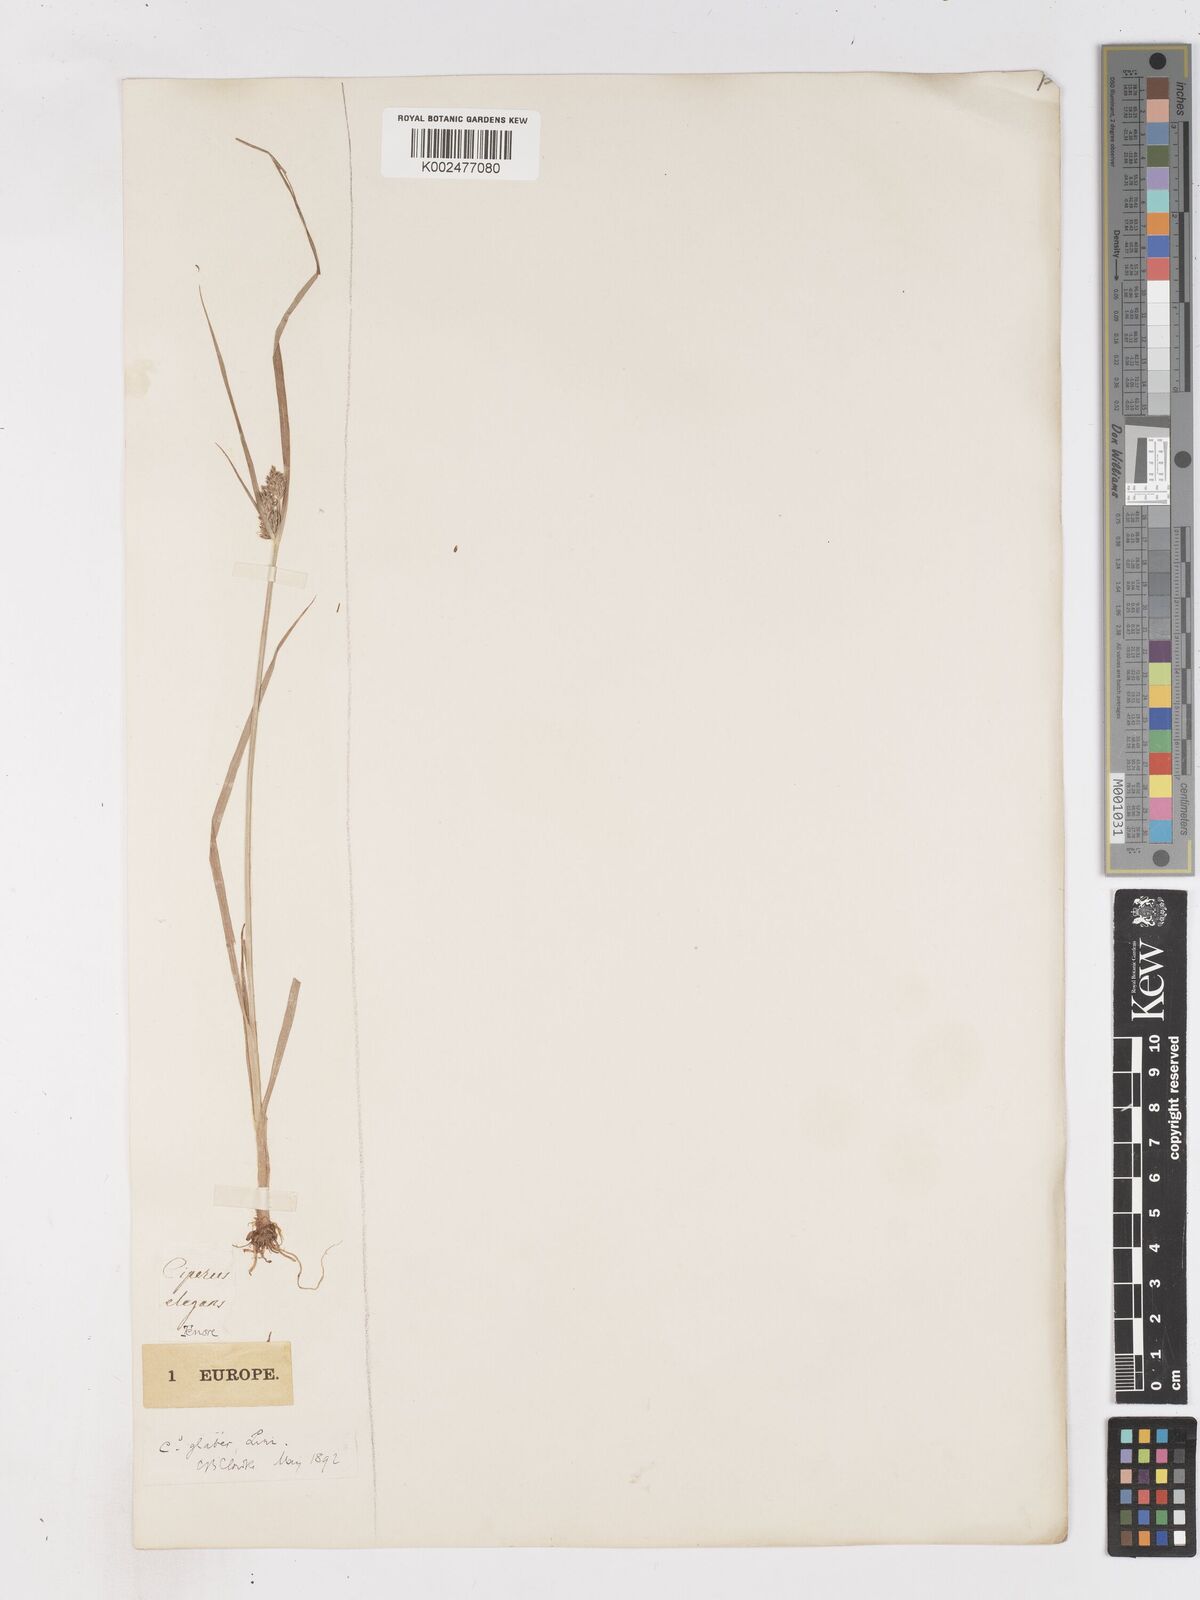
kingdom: Plantae
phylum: Tracheophyta
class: Liliopsida
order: Poales
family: Cyperaceae
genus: Cyperus
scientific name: Cyperus glaber
